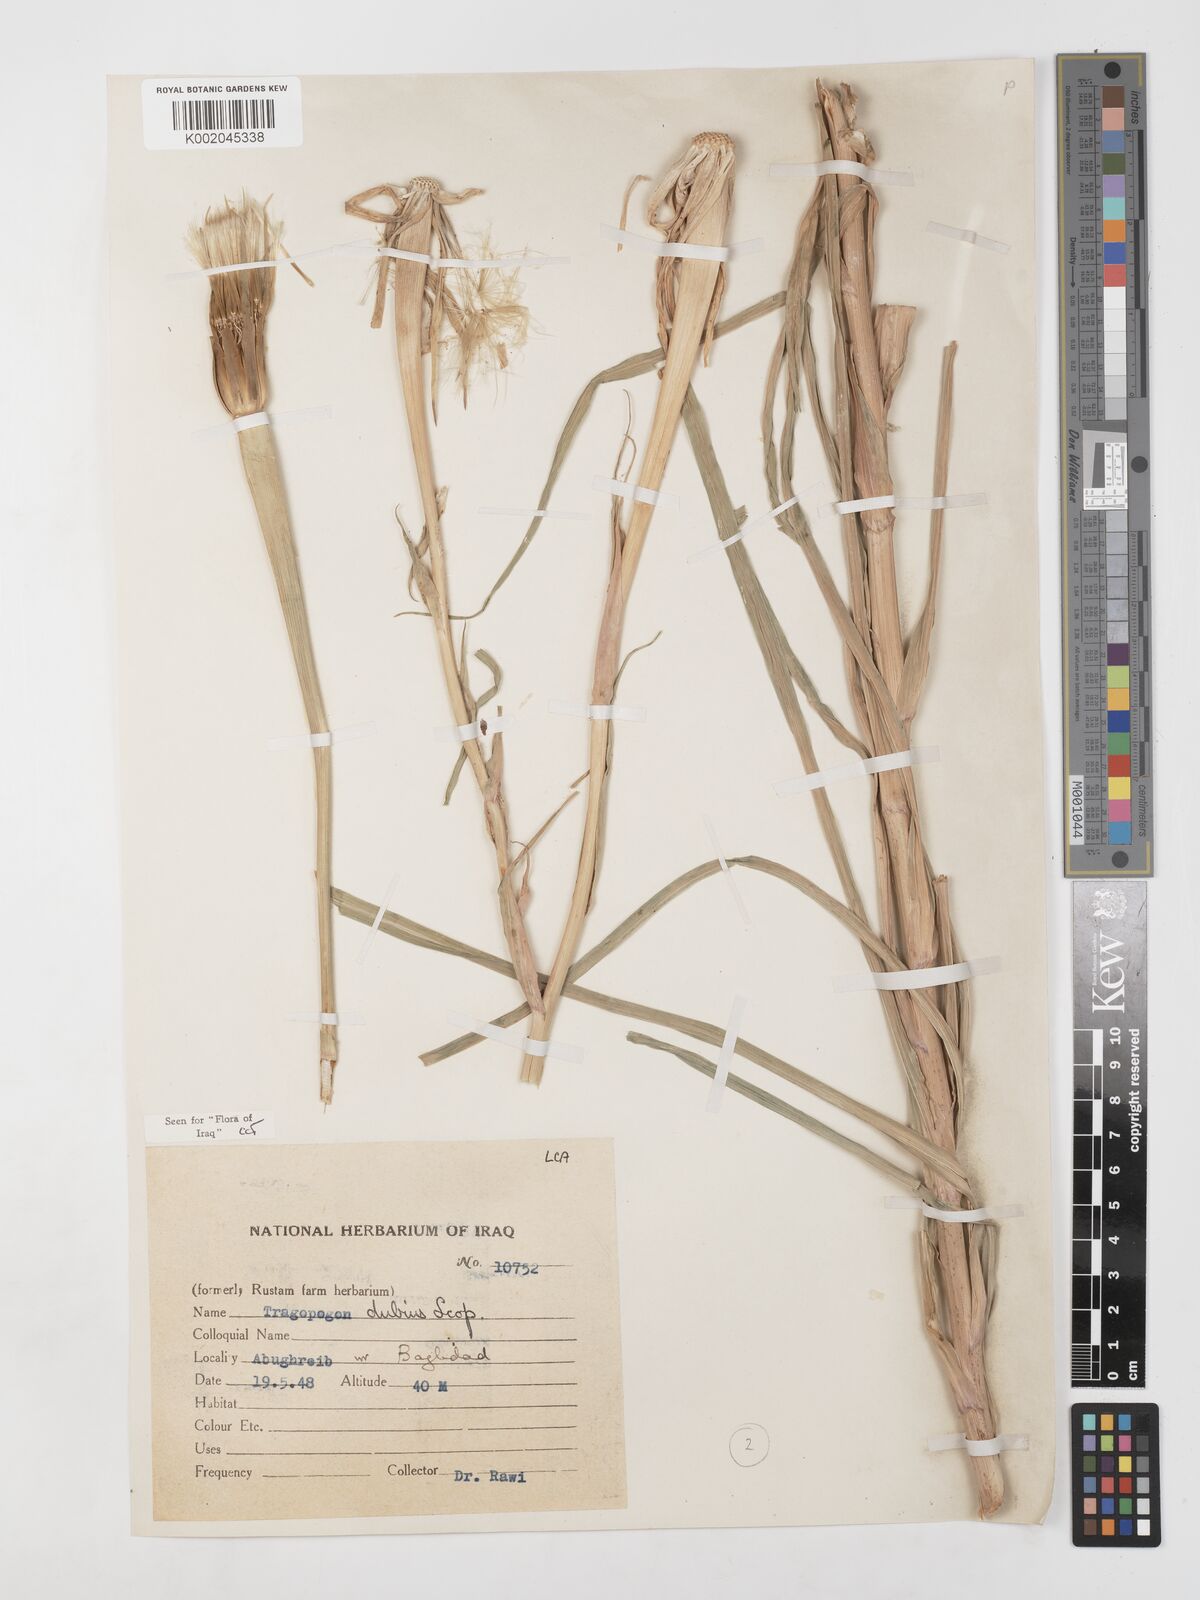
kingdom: Plantae
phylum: Tracheophyta
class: Magnoliopsida
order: Asterales
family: Asteraceae
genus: Tragopogon
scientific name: Tragopogon dubius
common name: Yellow salsify
